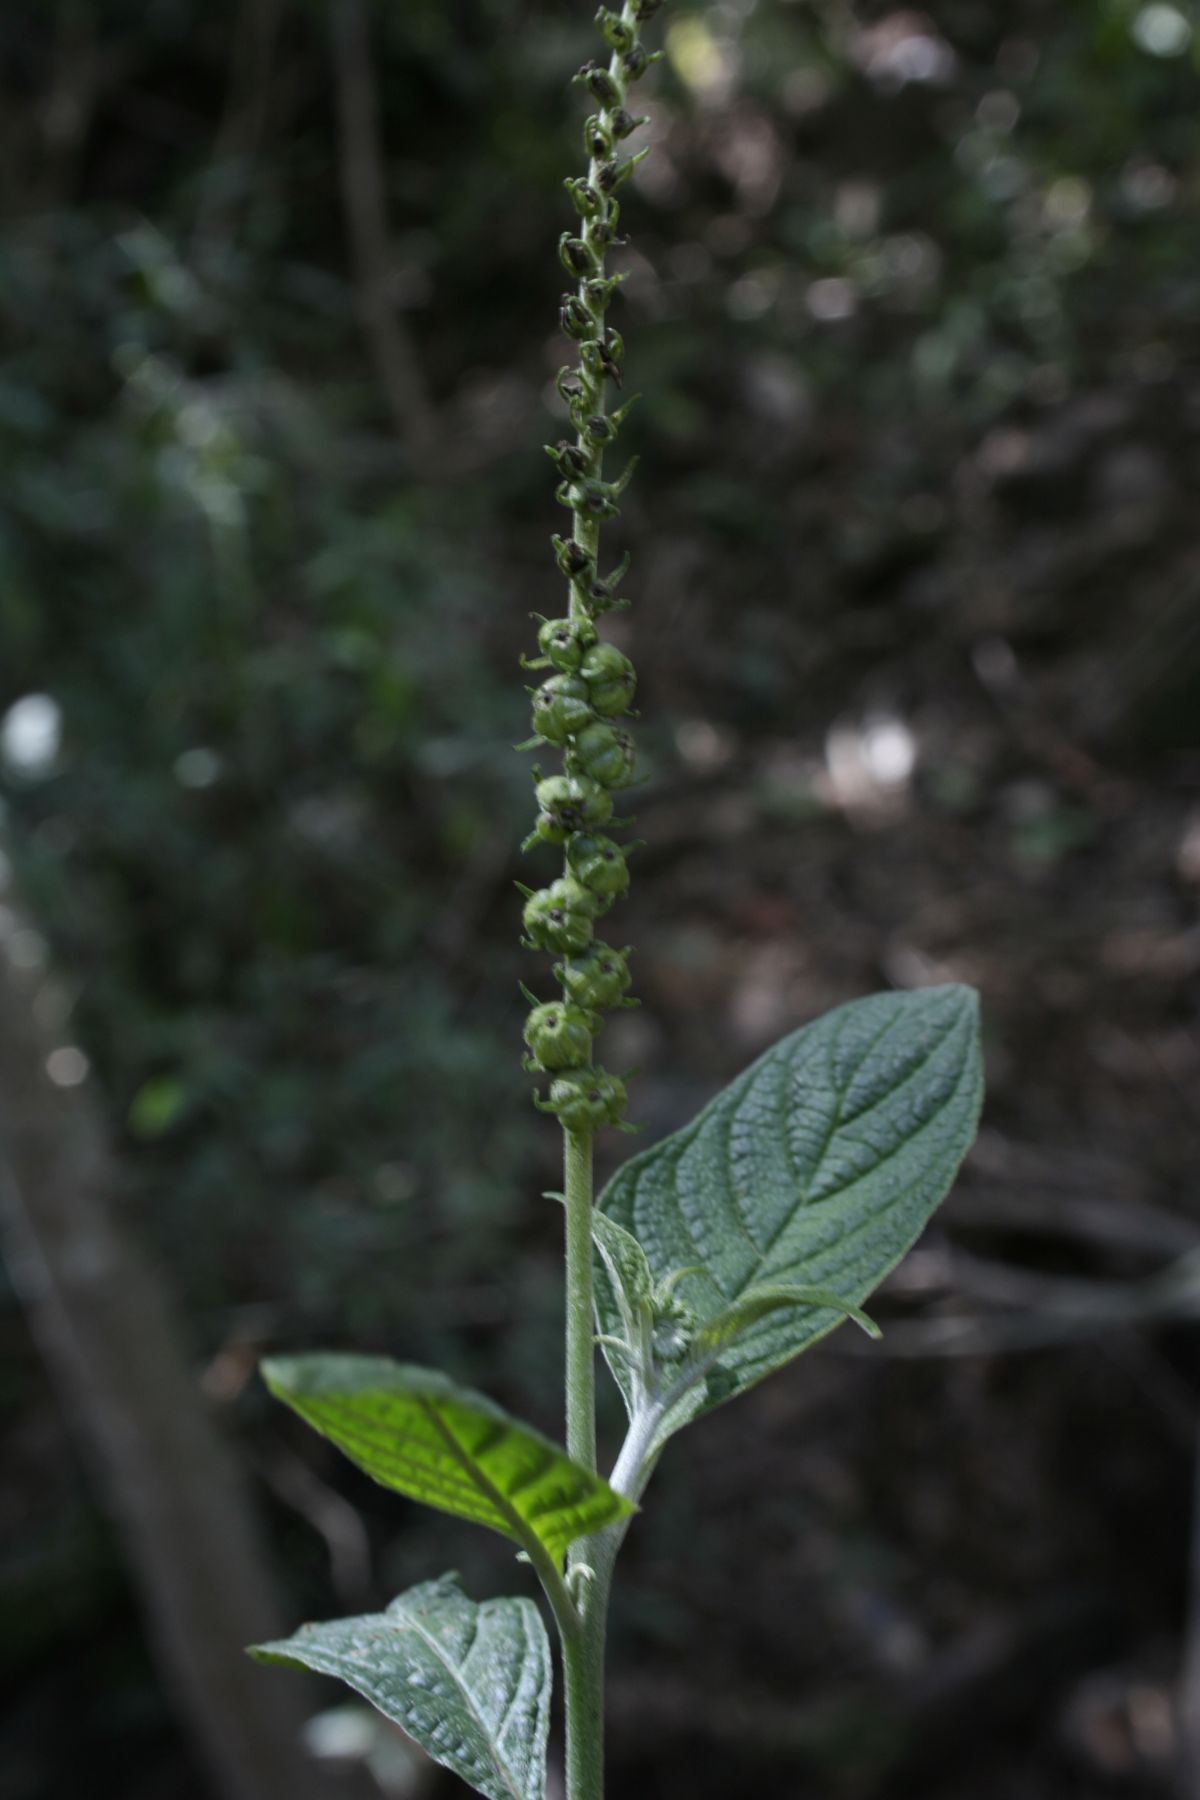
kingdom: Plantae
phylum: Tracheophyta
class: Magnoliopsida
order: Boraginales
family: Heliotropiaceae
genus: Heliotropium
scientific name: Heliotropium angiospermum
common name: Eye bright
